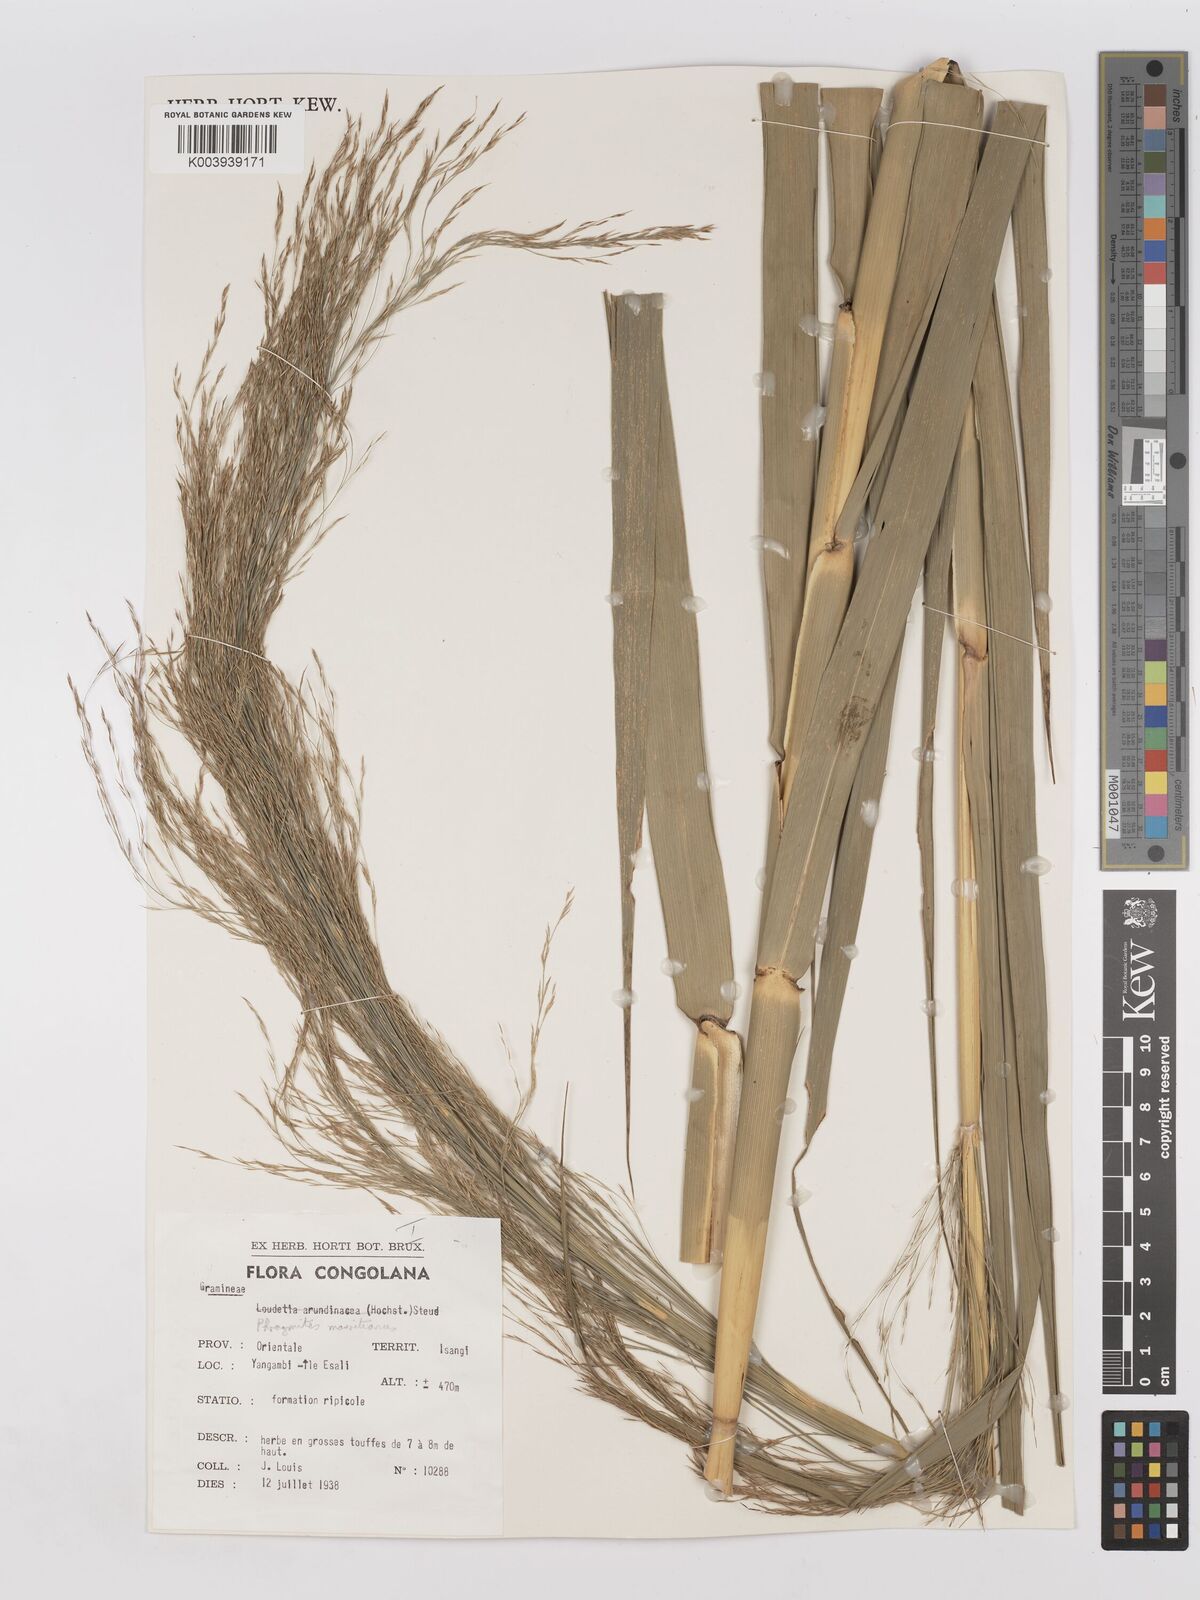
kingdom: Plantae
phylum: Tracheophyta
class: Liliopsida
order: Poales
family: Poaceae
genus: Phragmites
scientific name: Phragmites mauritianus
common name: Reed grass
